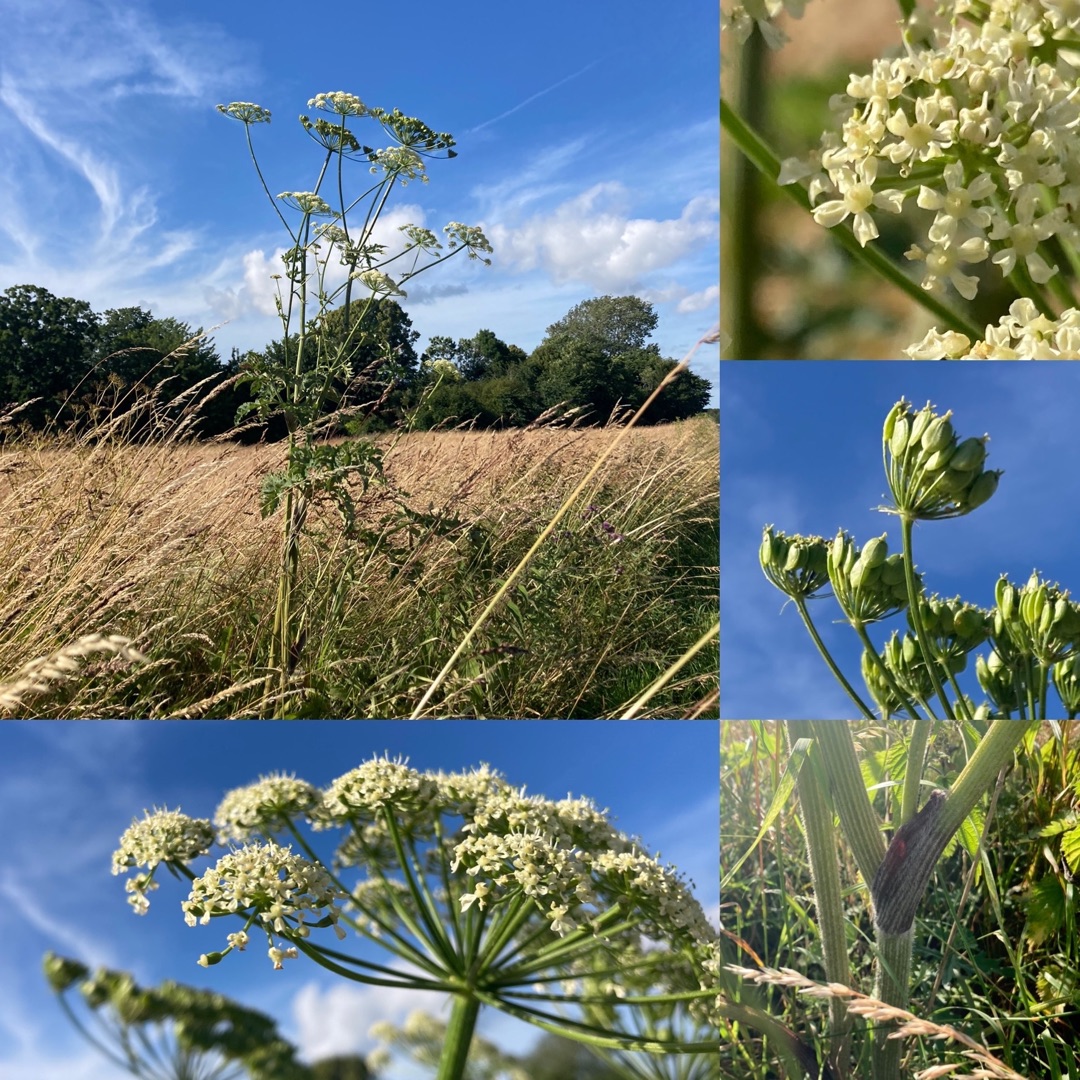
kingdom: Plantae
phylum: Tracheophyta
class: Magnoliopsida
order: Apiales
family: Apiaceae
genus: Heracleum
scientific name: Heracleum sphondylium
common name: Grønblomstret bjørneklo
